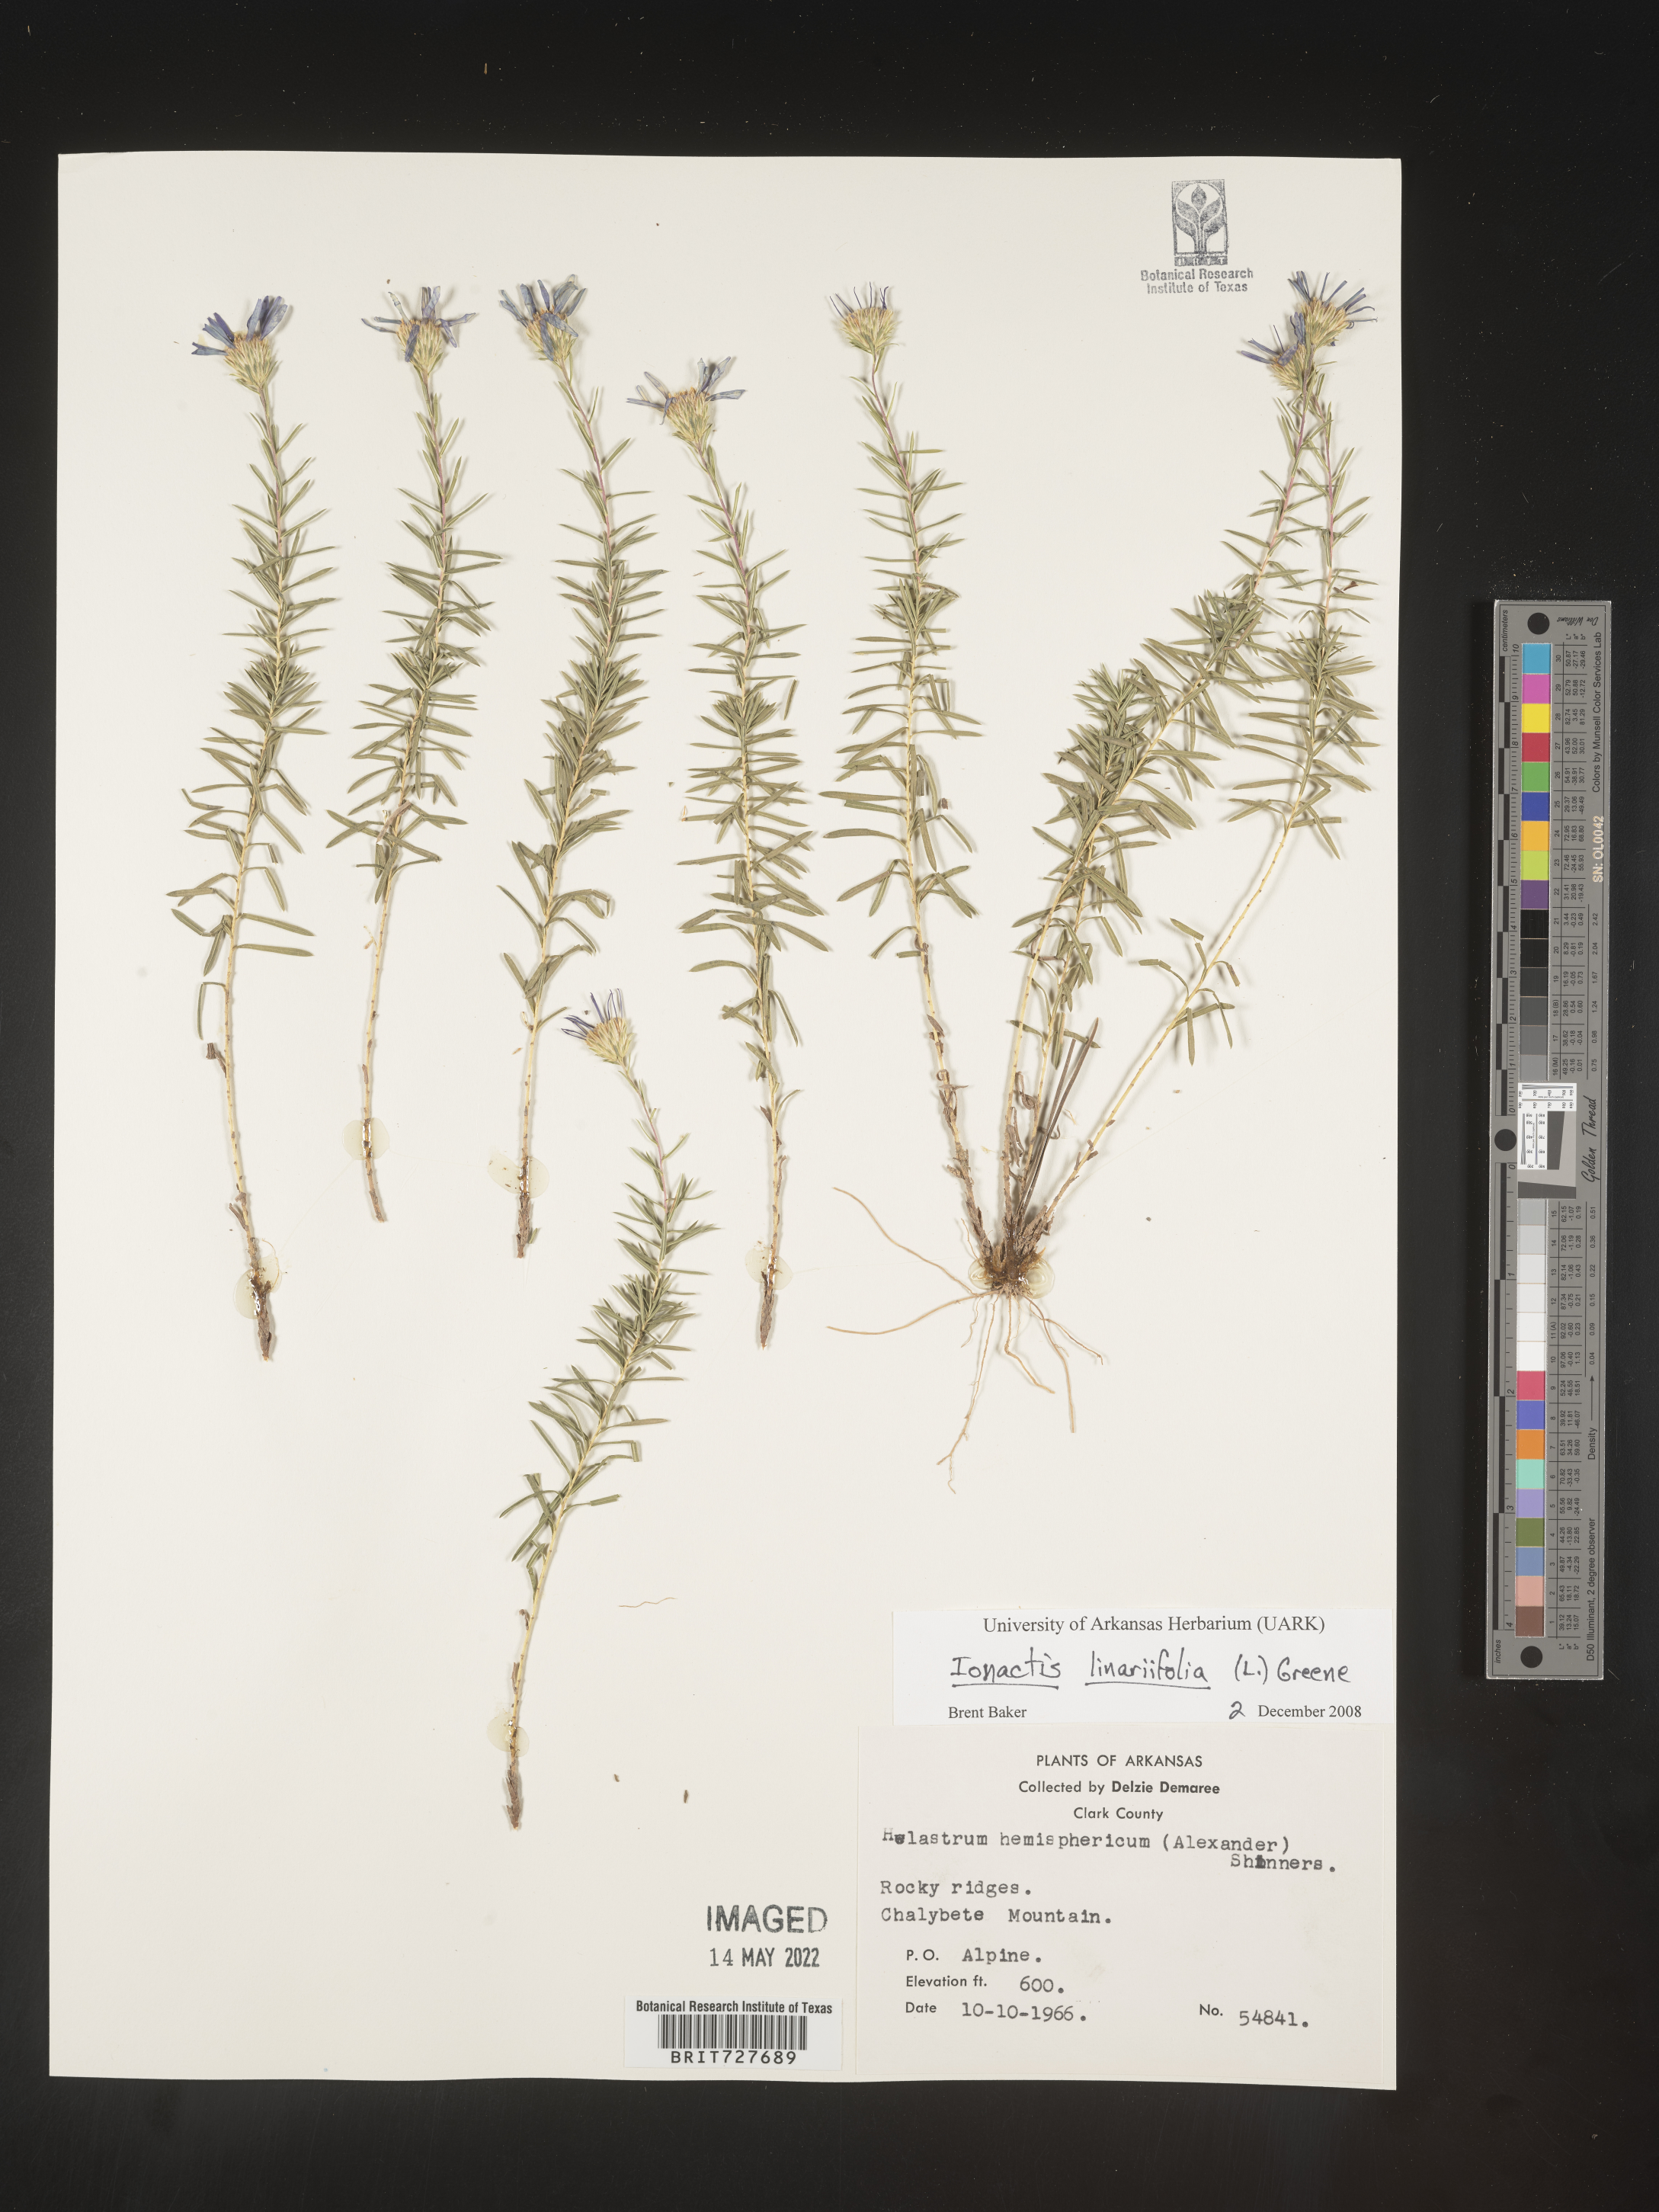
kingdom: Plantae
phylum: Tracheophyta
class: Magnoliopsida
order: Asterales
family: Asteraceae
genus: Ionactis
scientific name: Ionactis linariifolia
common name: Flax-leaf aster
